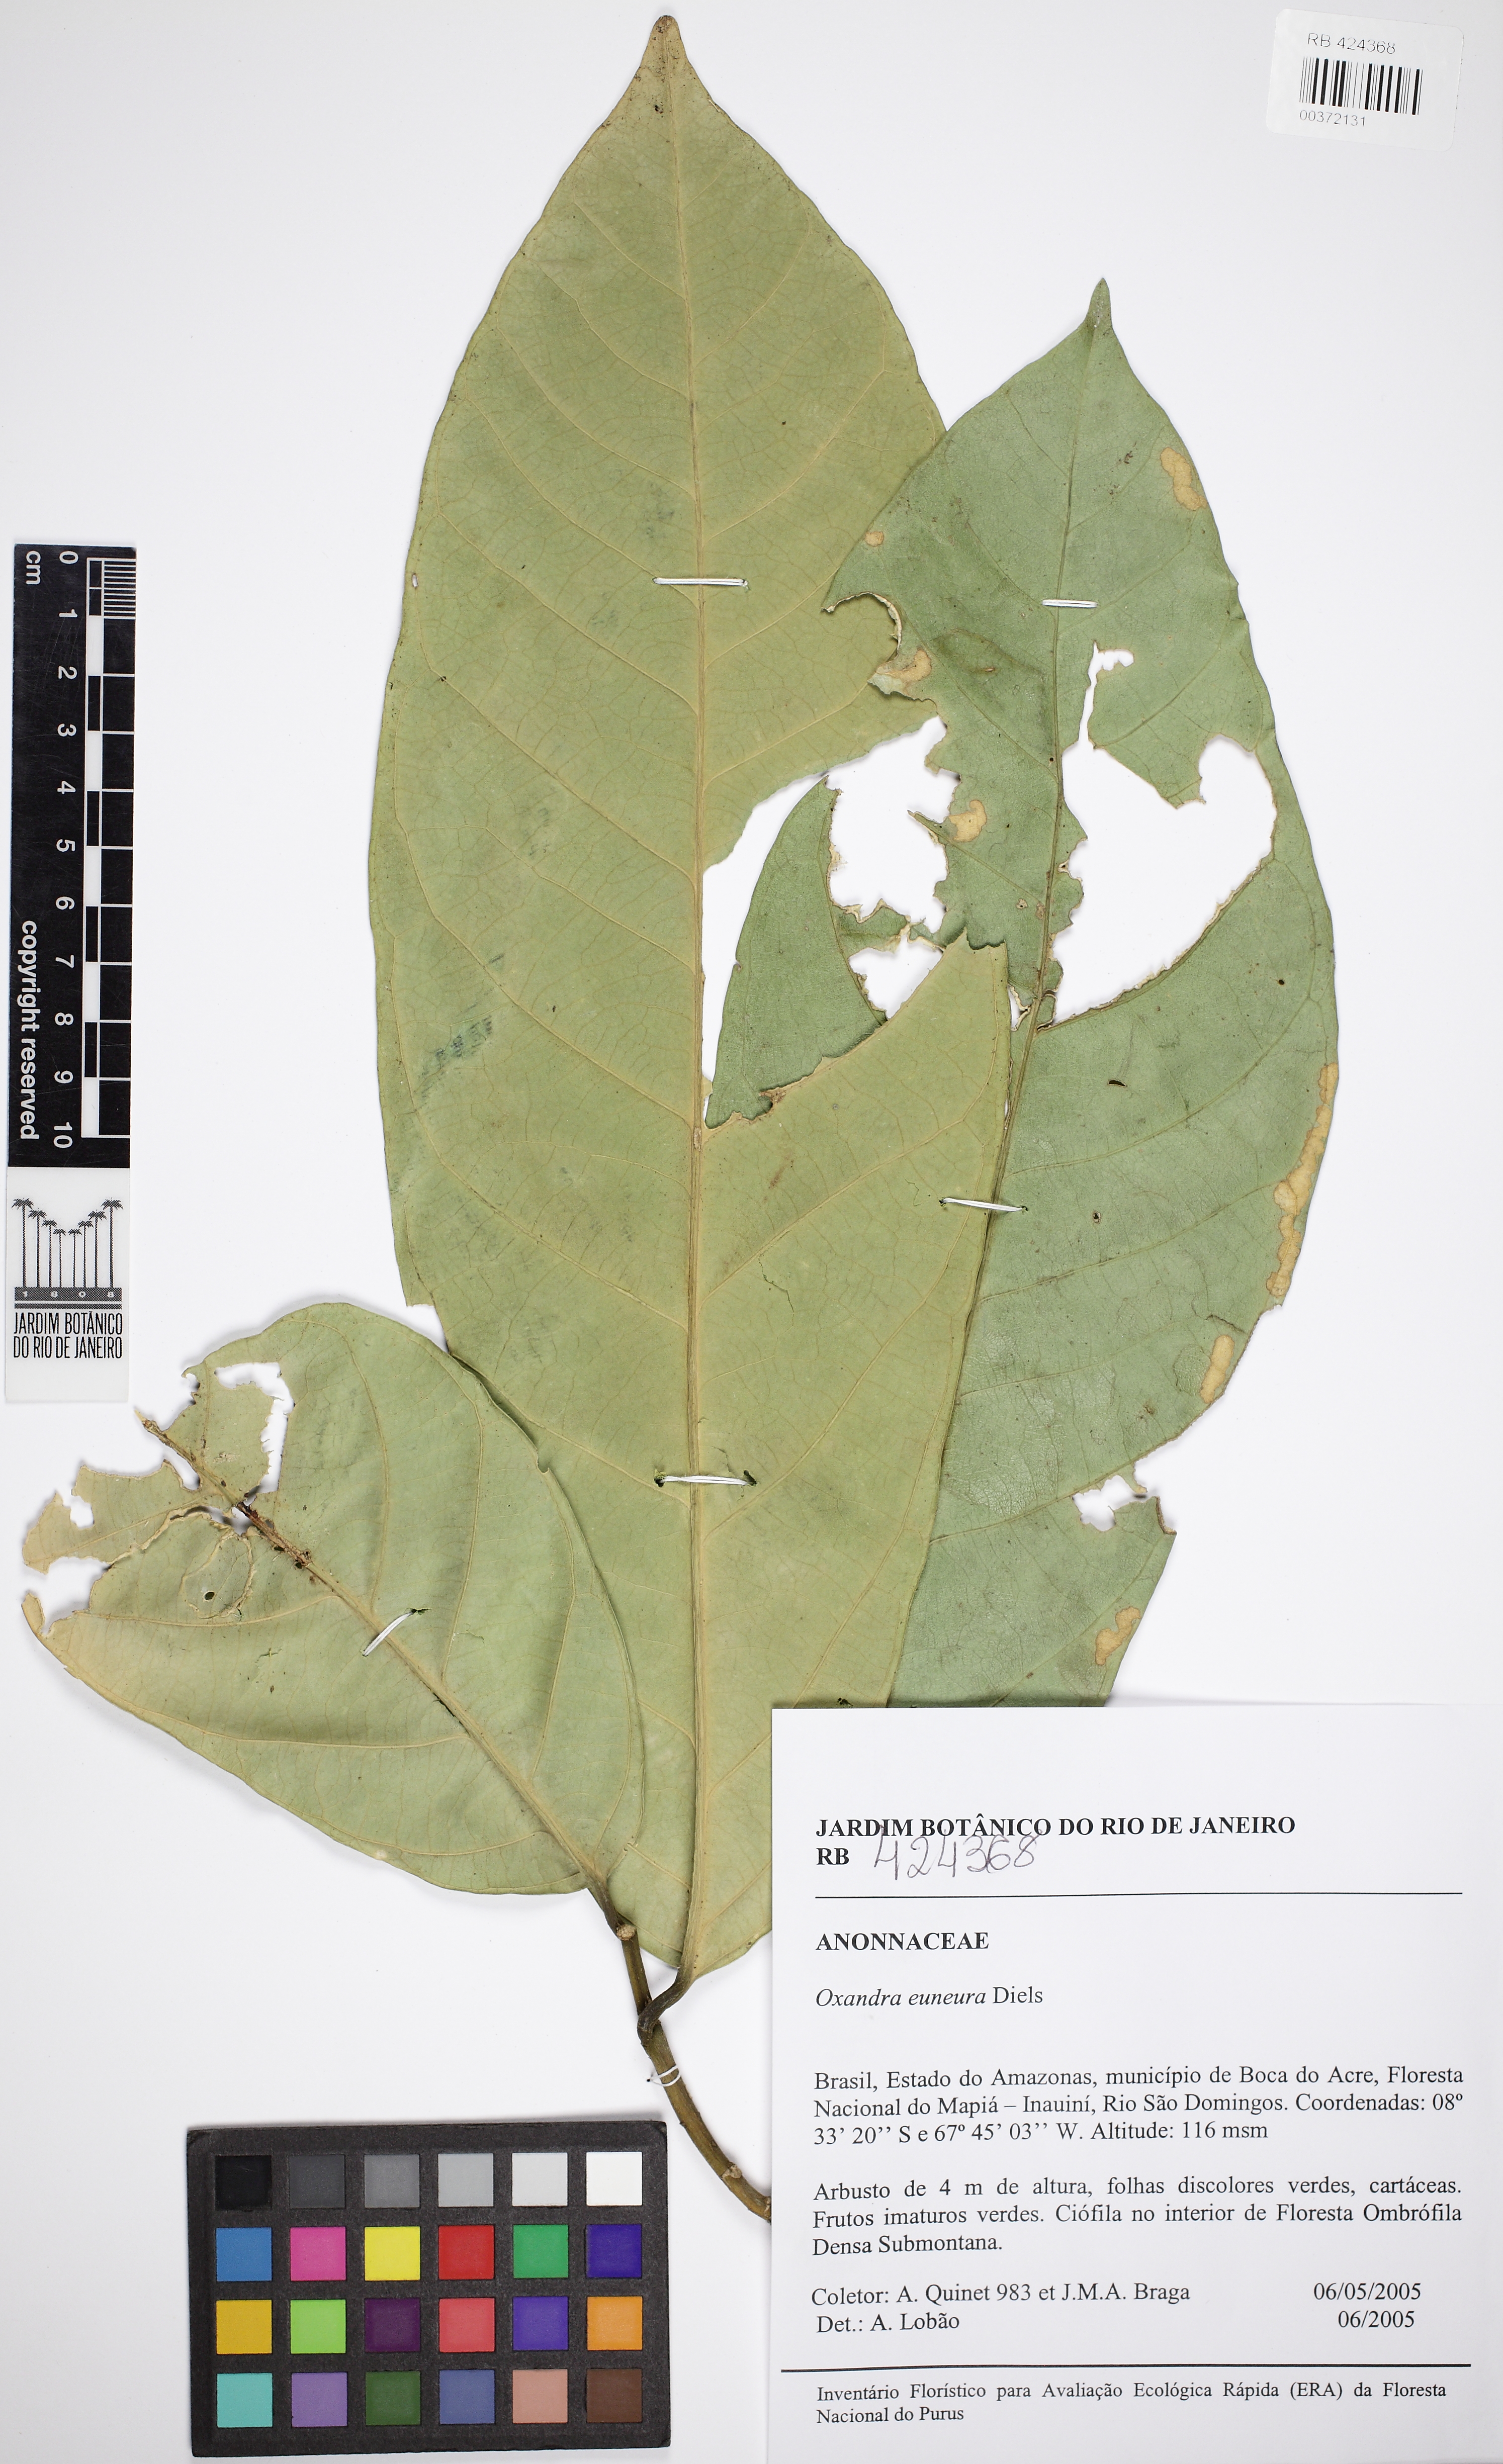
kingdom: Plantae
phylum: Tracheophyta
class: Magnoliopsida
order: Magnoliales
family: Annonaceae
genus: Oxandra
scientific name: Oxandra euneura
